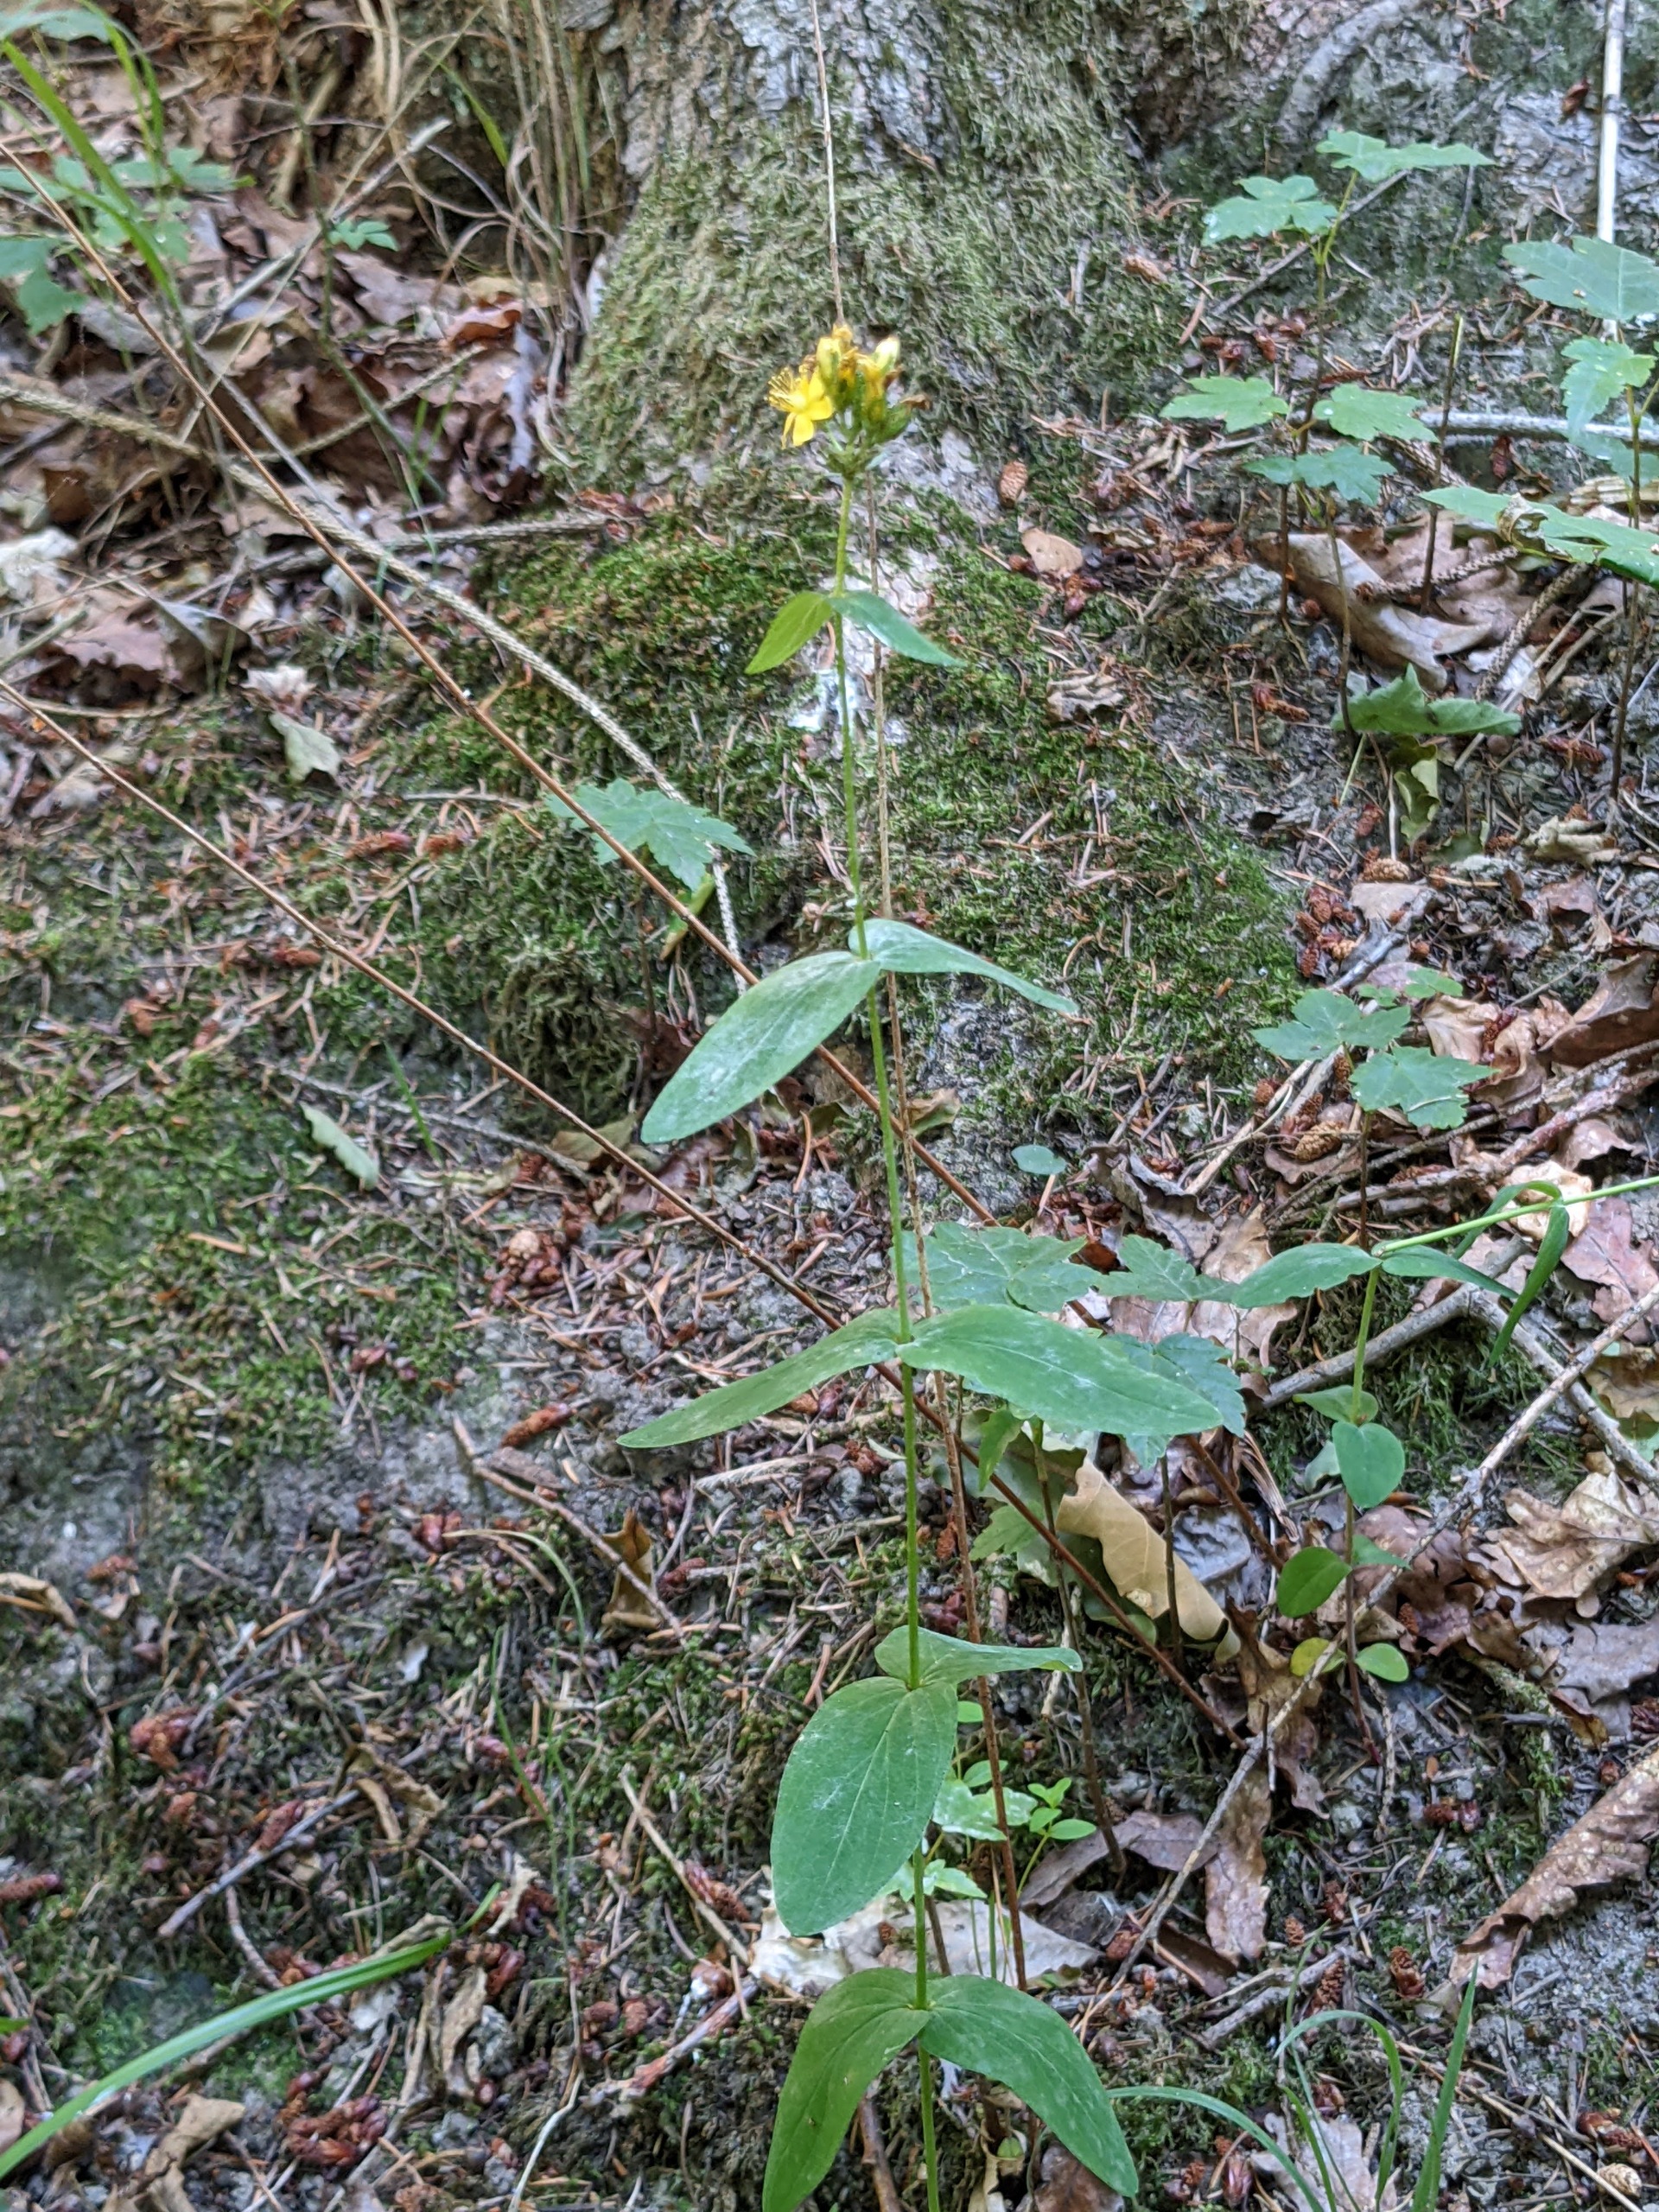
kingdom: Plantae
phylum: Tracheophyta
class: Magnoliopsida
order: Malpighiales
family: Hypericaceae
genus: Hypericum
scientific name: Hypericum montanum
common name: Bjerg-perikon
